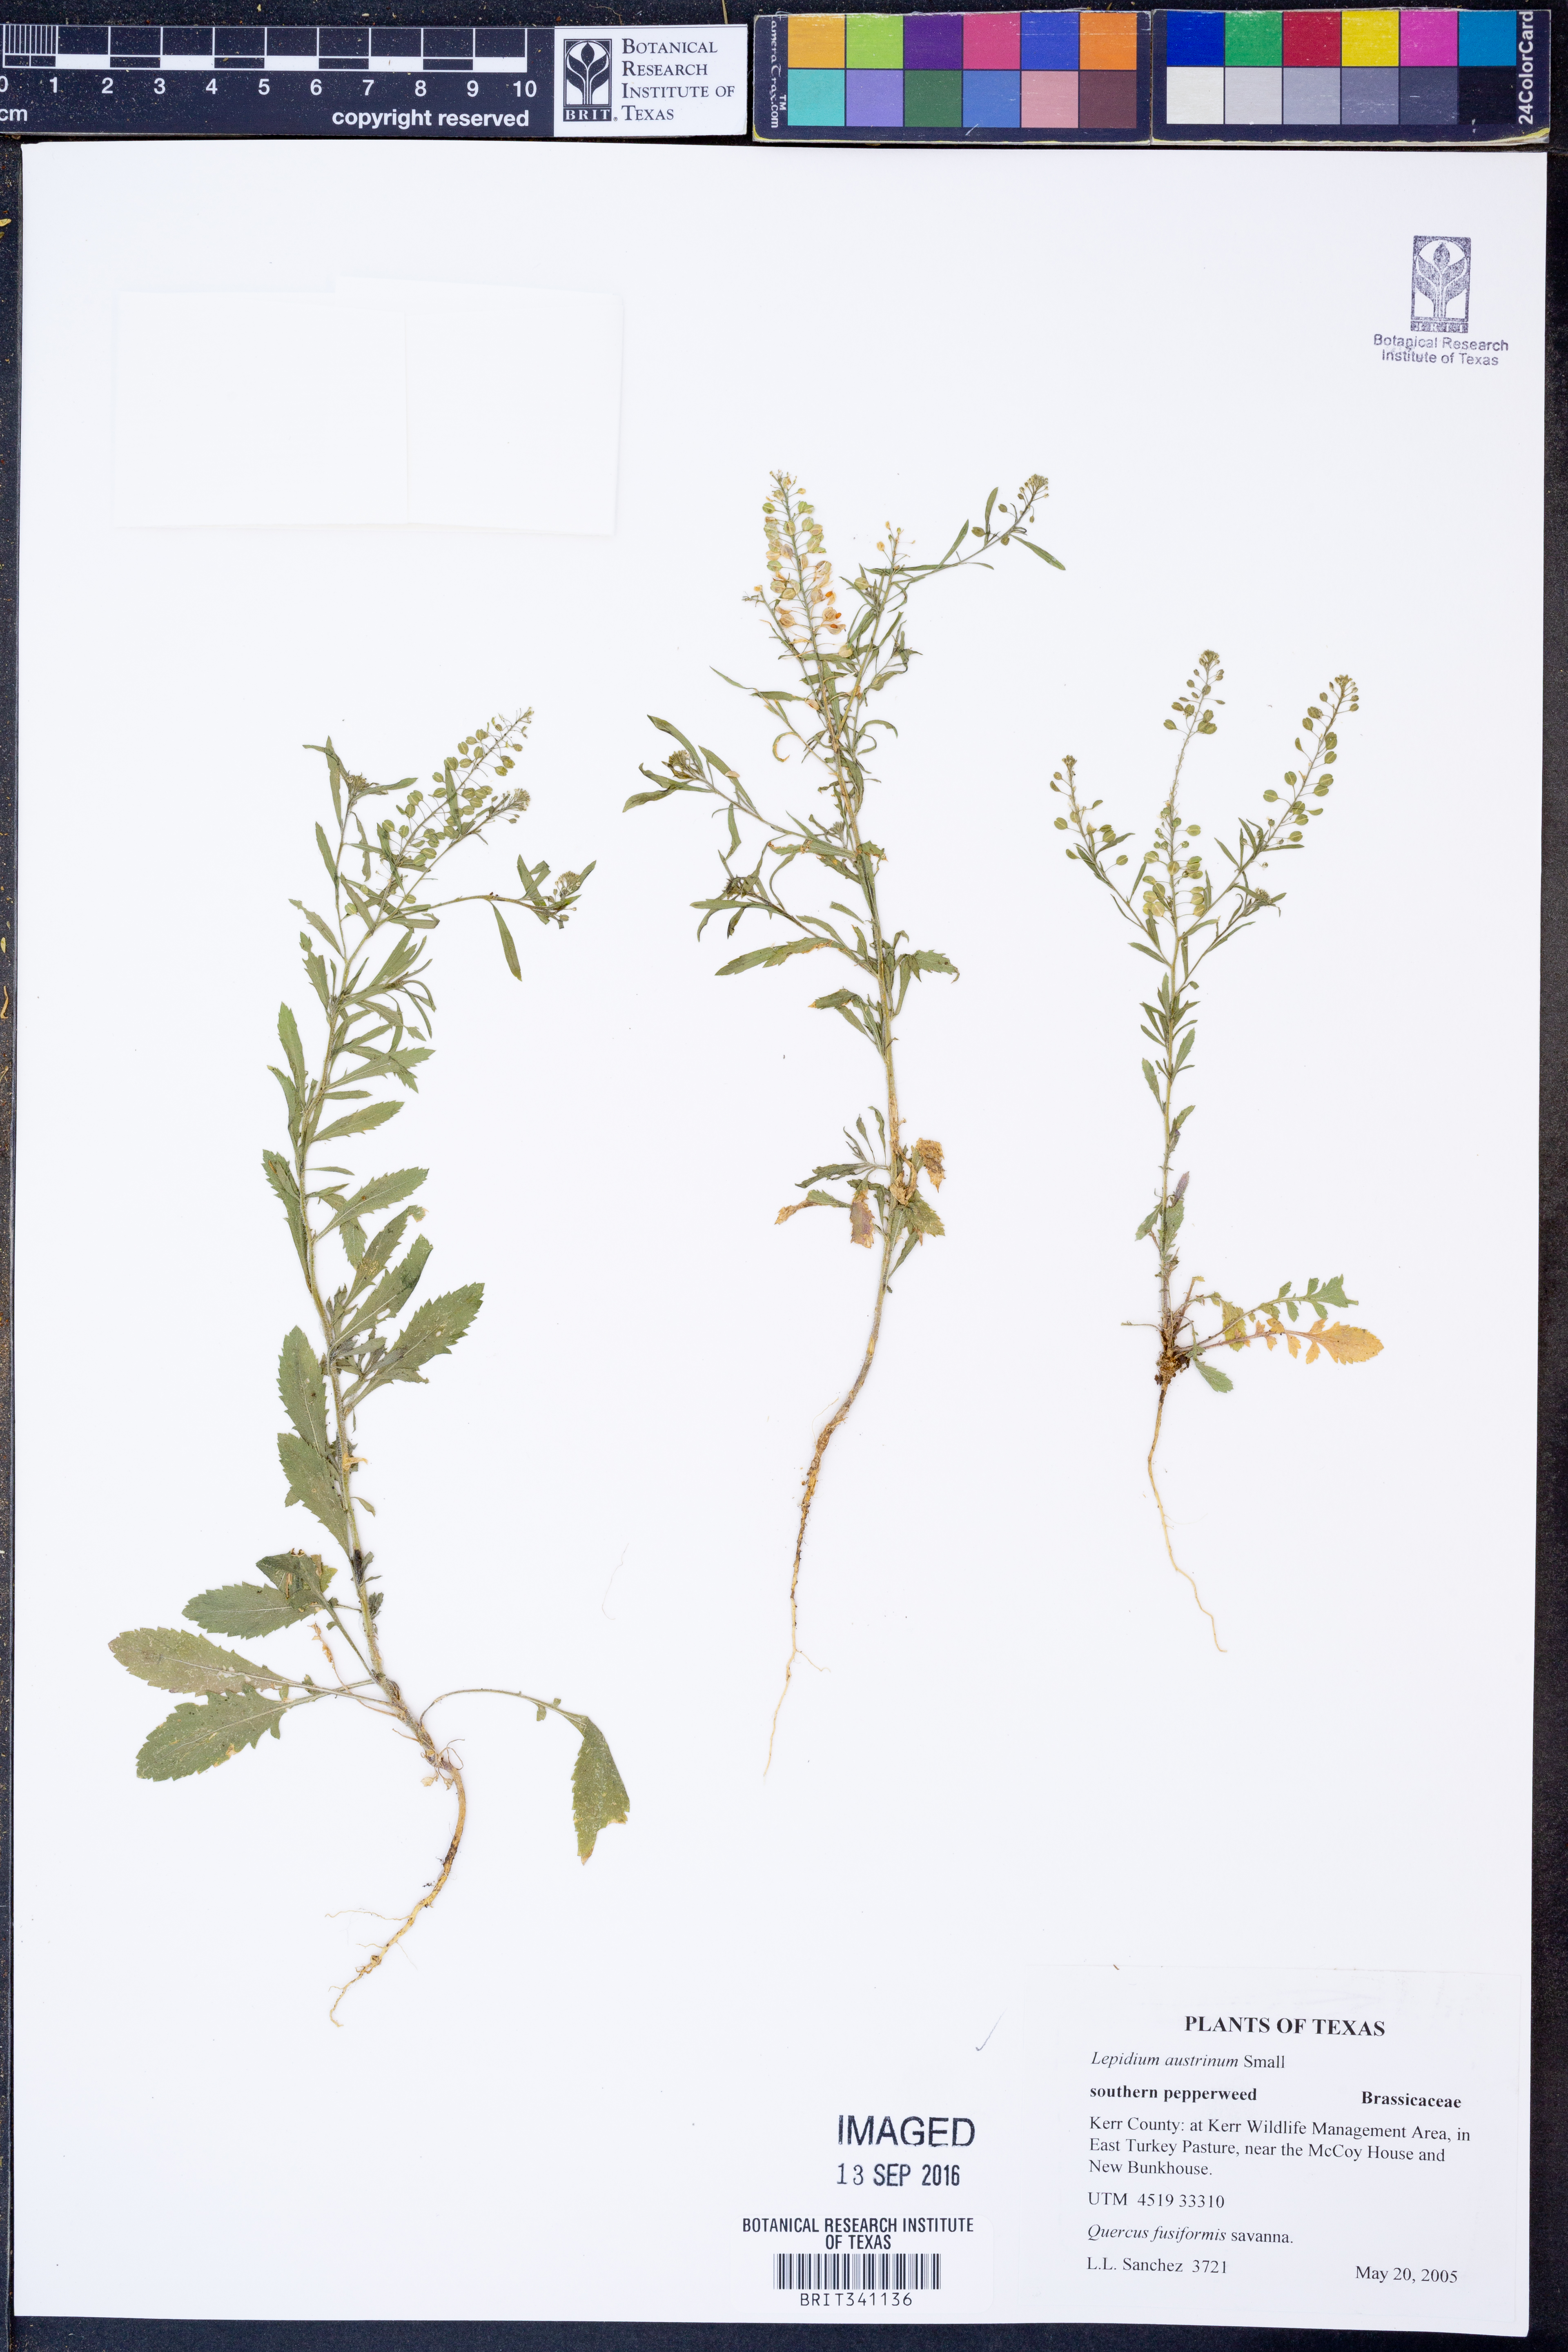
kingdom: Plantae
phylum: Tracheophyta
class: Magnoliopsida
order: Brassicales
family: Brassicaceae
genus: Lepidium
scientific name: Lepidium austrinum
